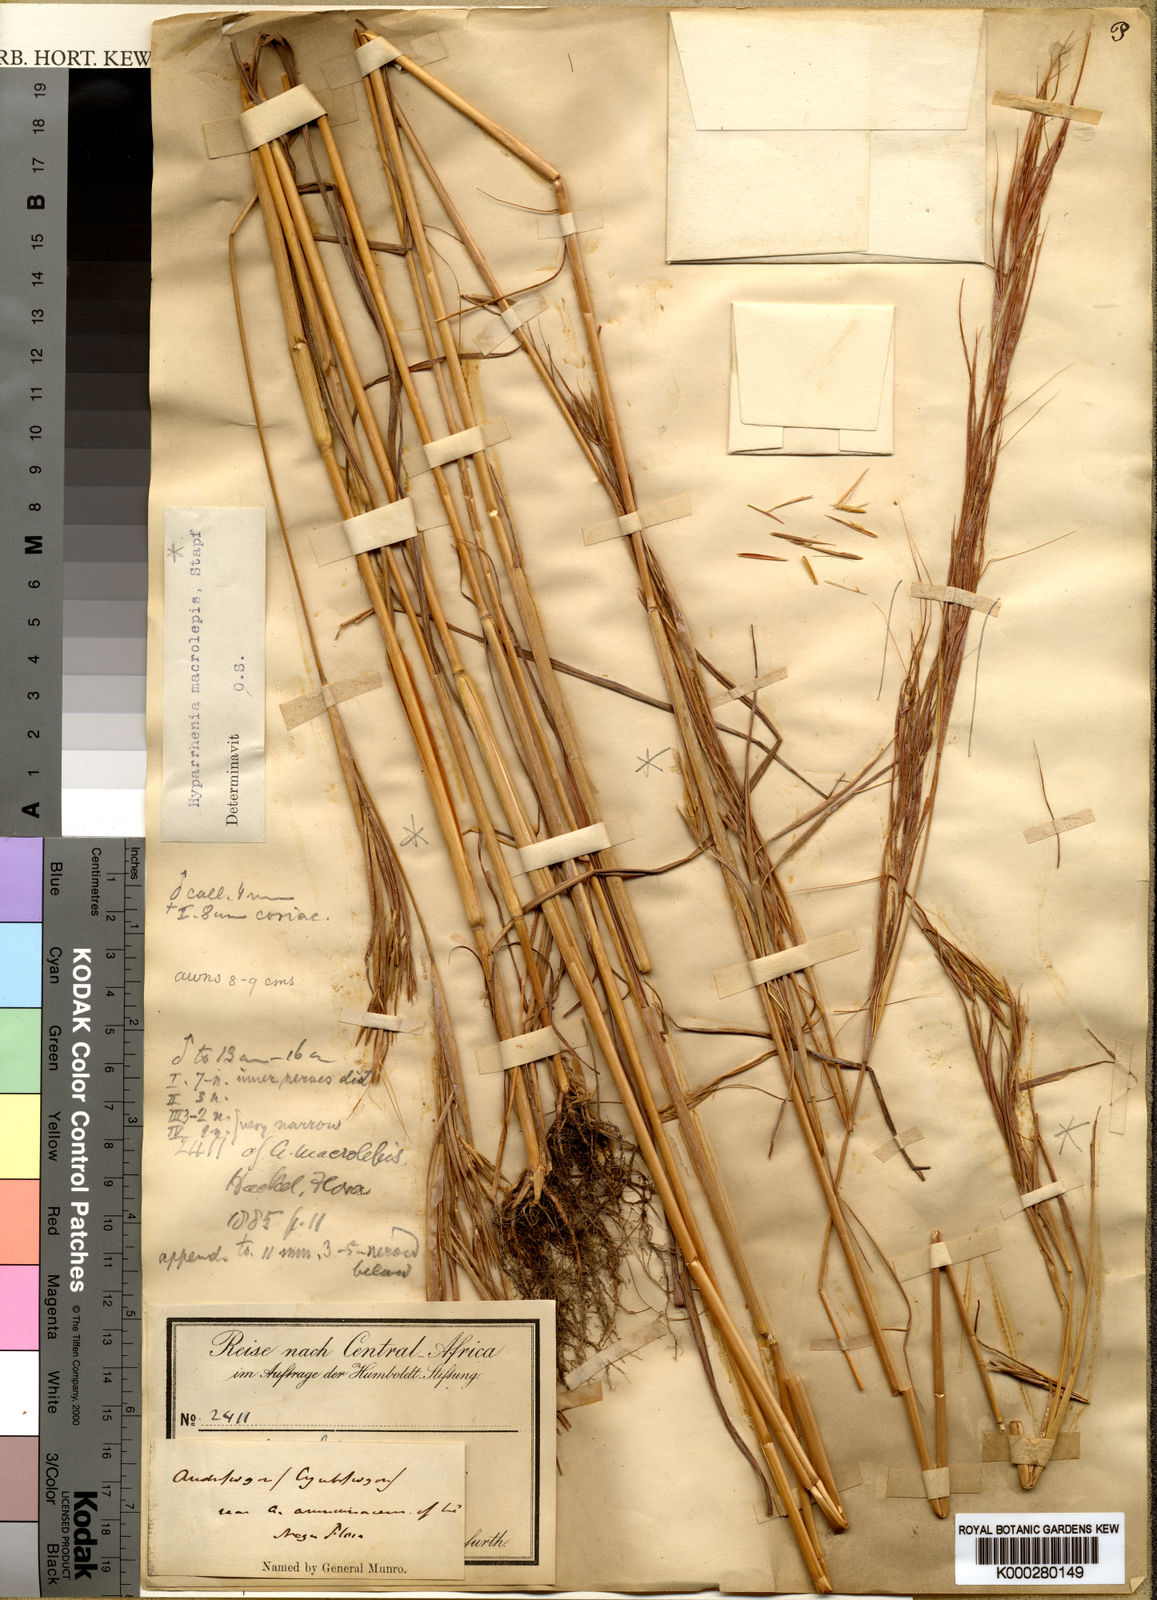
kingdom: Plantae
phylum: Tracheophyta
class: Liliopsida
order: Poales
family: Poaceae
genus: Hyperthelia
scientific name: Hyperthelia dissoluta
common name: Yellow thatching grass
